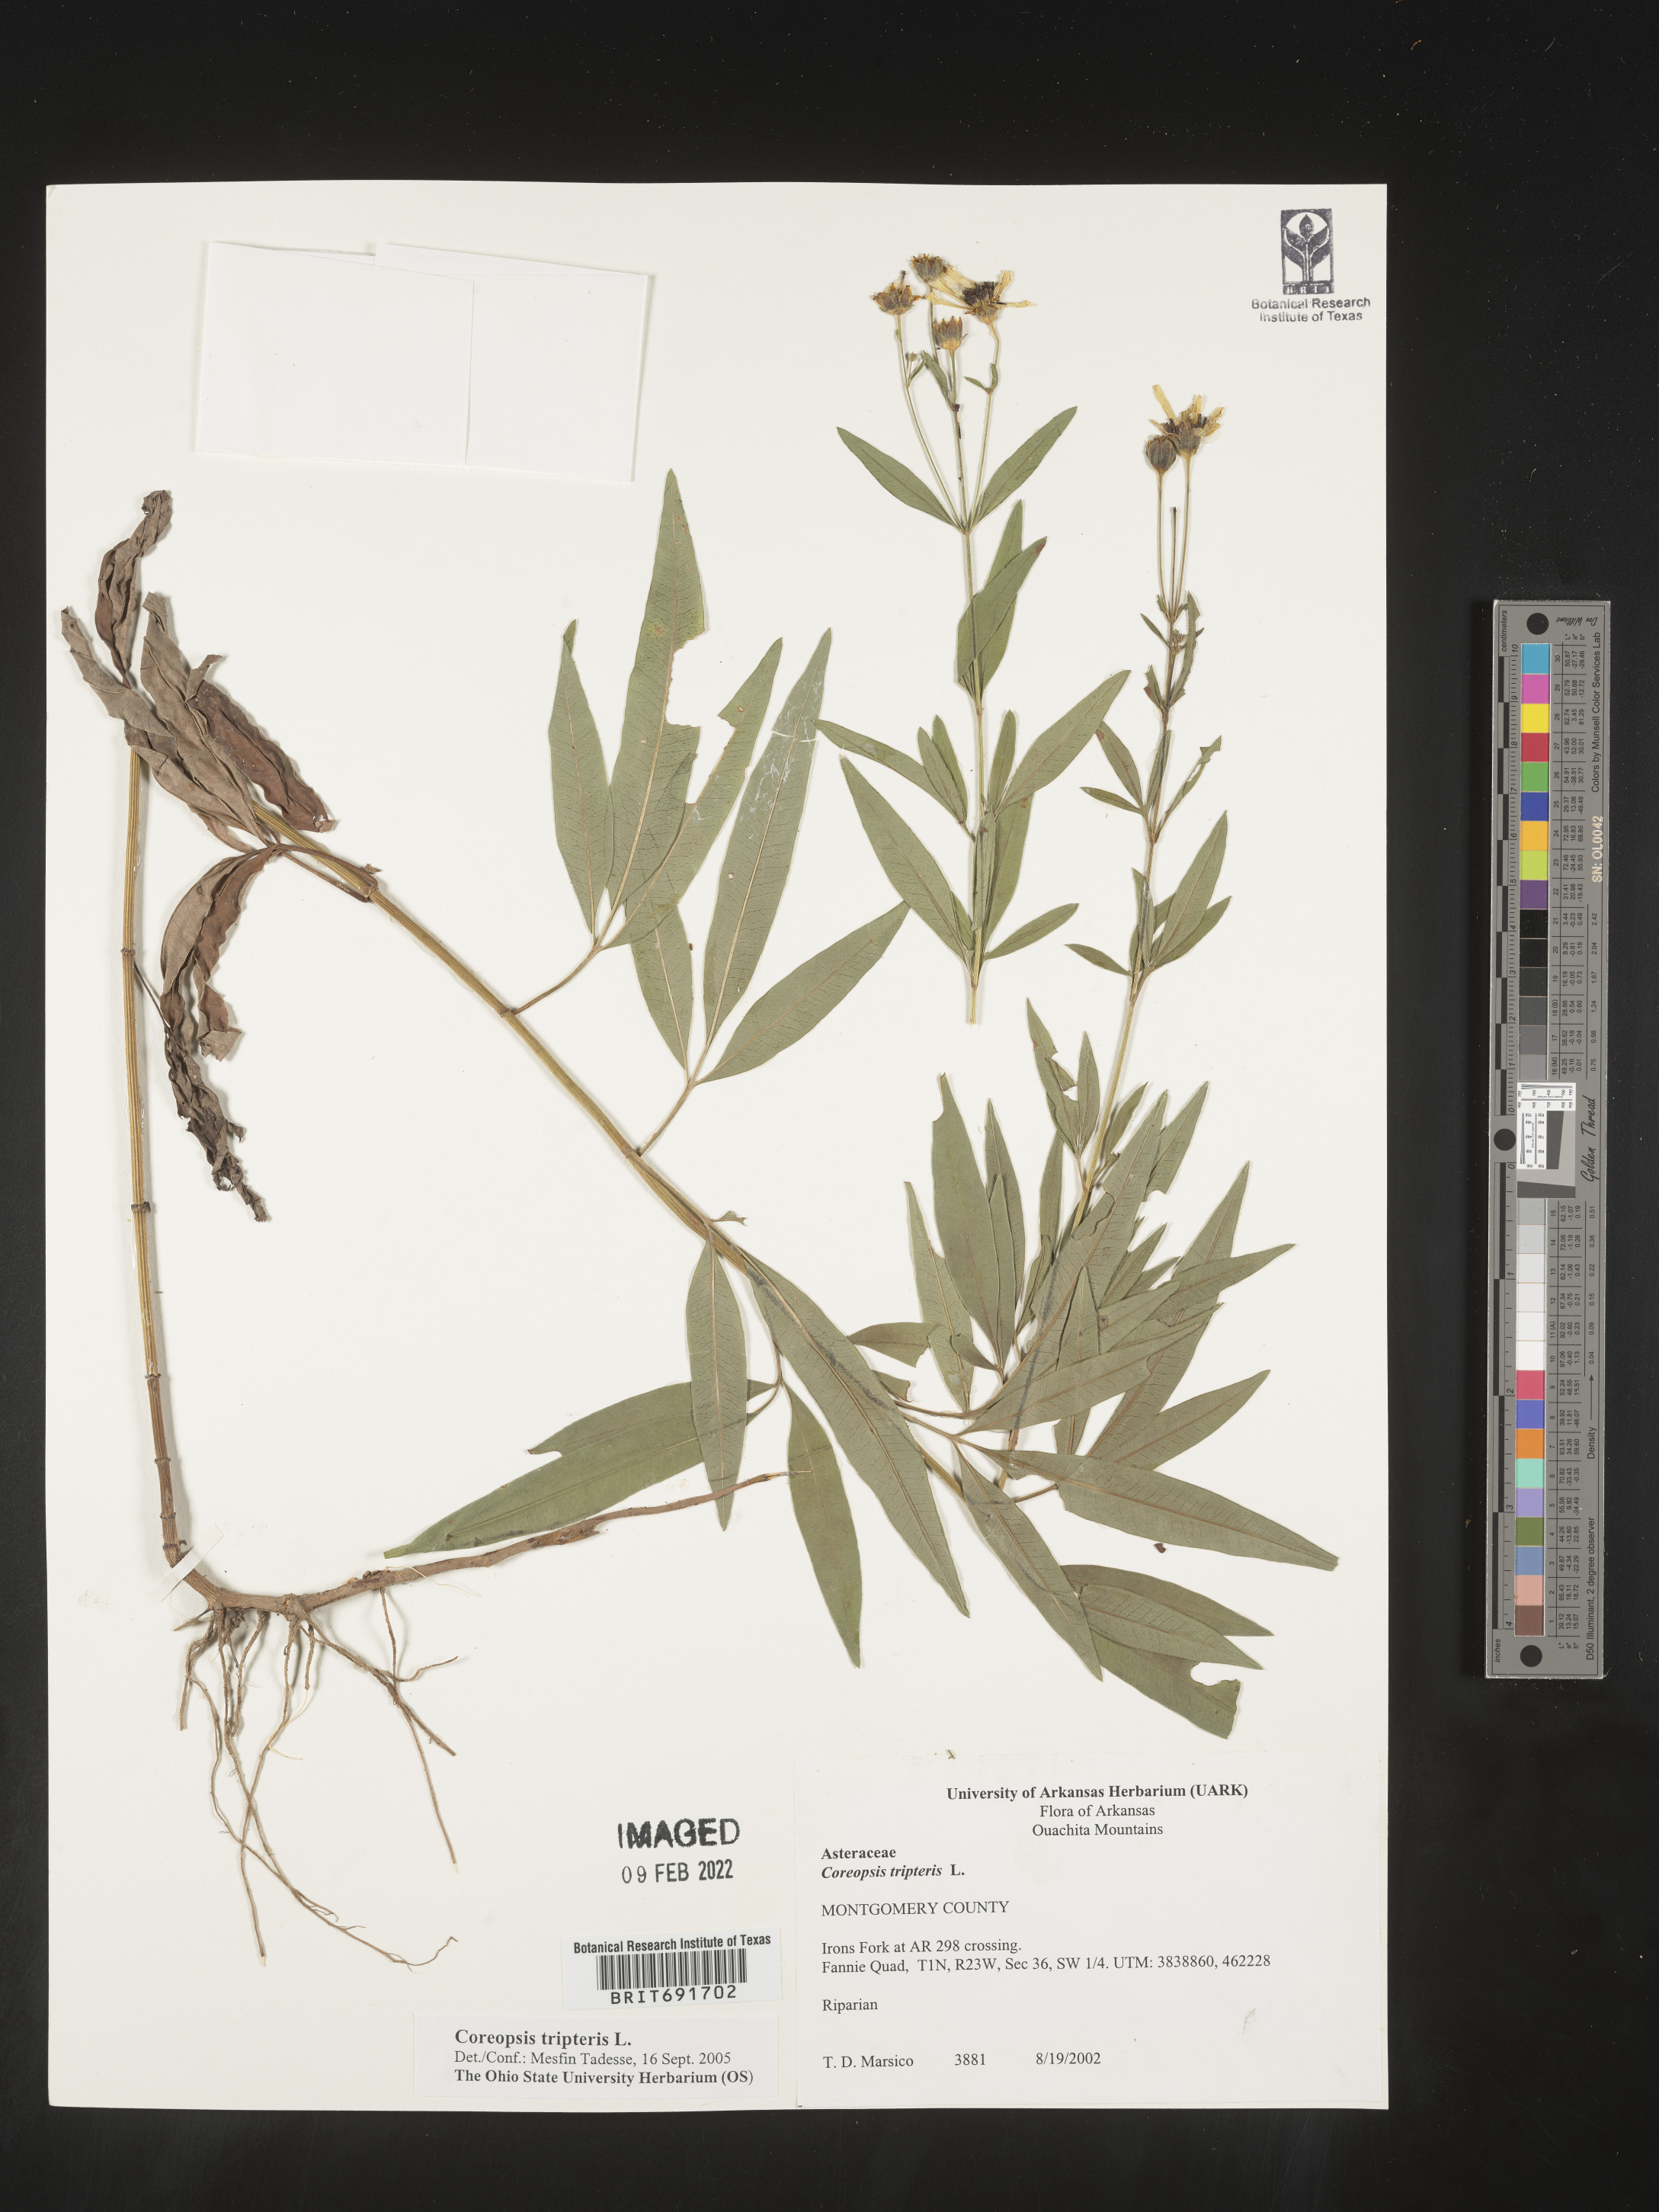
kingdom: Plantae
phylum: Tracheophyta
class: Magnoliopsida
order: Asterales
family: Asteraceae
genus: Coreopsis
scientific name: Coreopsis tripteris
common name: Tall coreopsis
